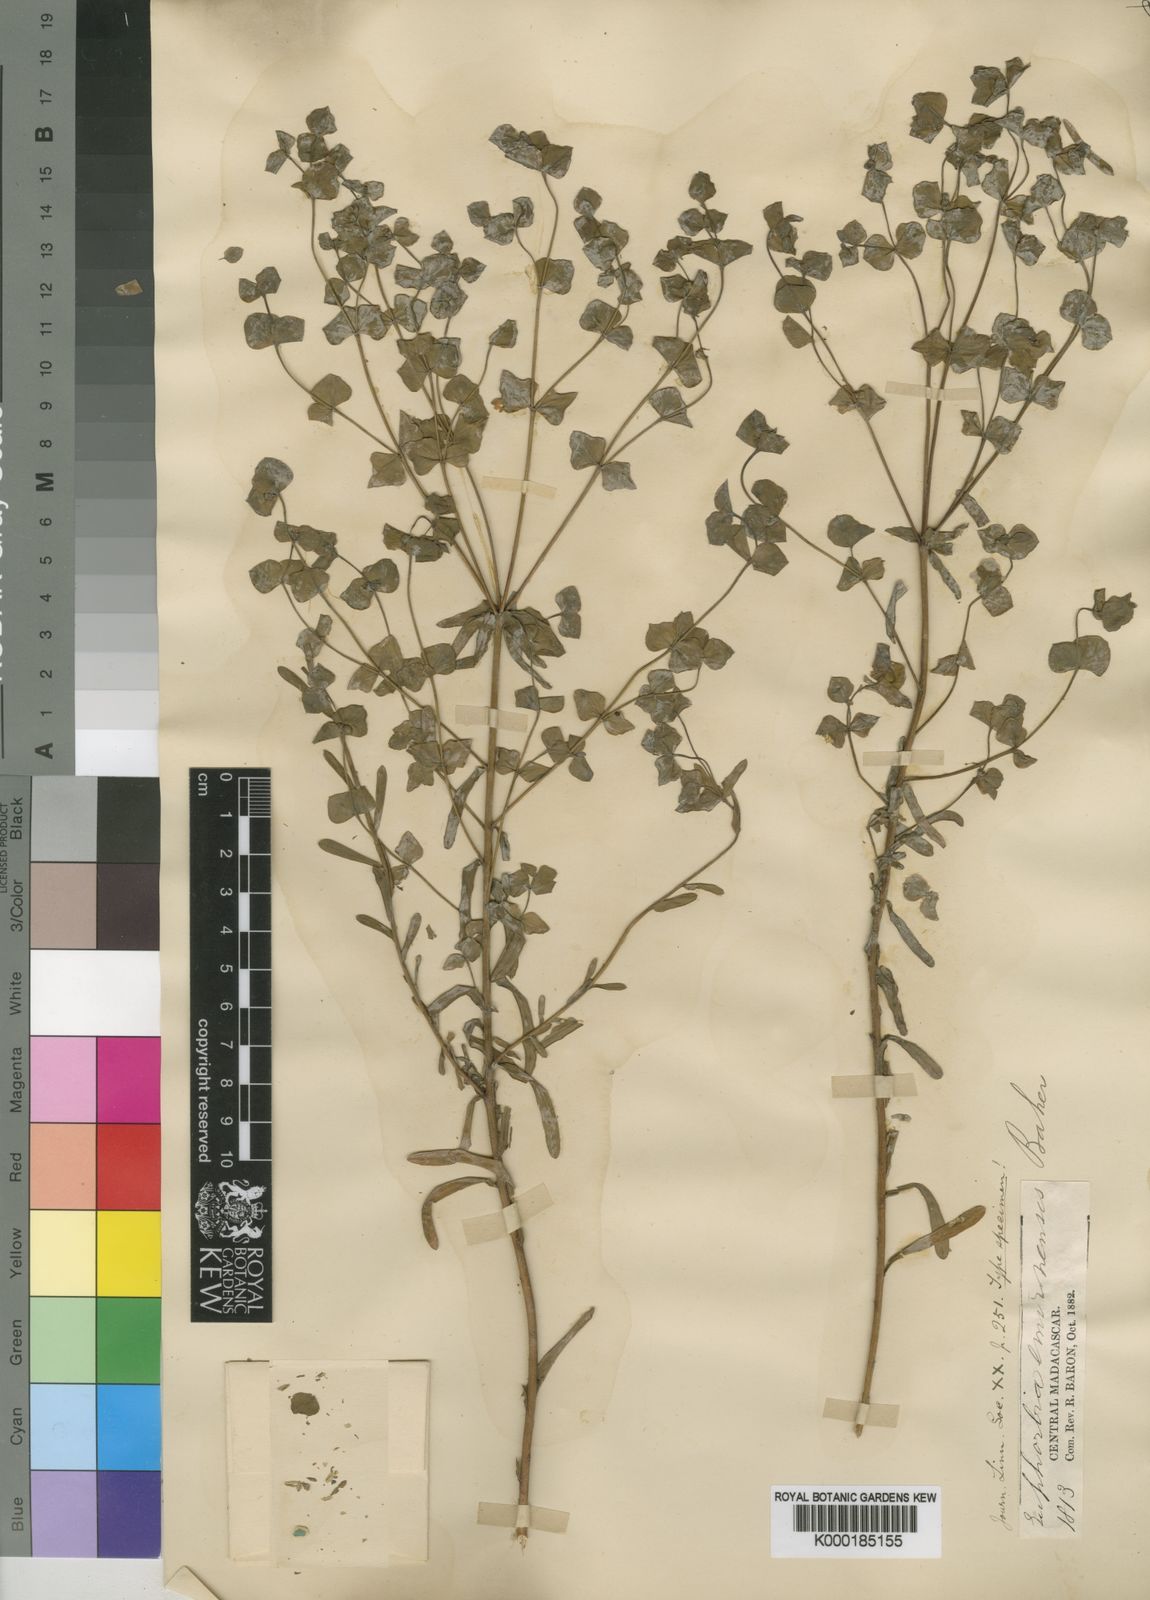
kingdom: Plantae
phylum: Tracheophyta
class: Magnoliopsida
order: Malpighiales
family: Euphorbiaceae
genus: Euphorbia
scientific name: Euphorbia emirnensis
